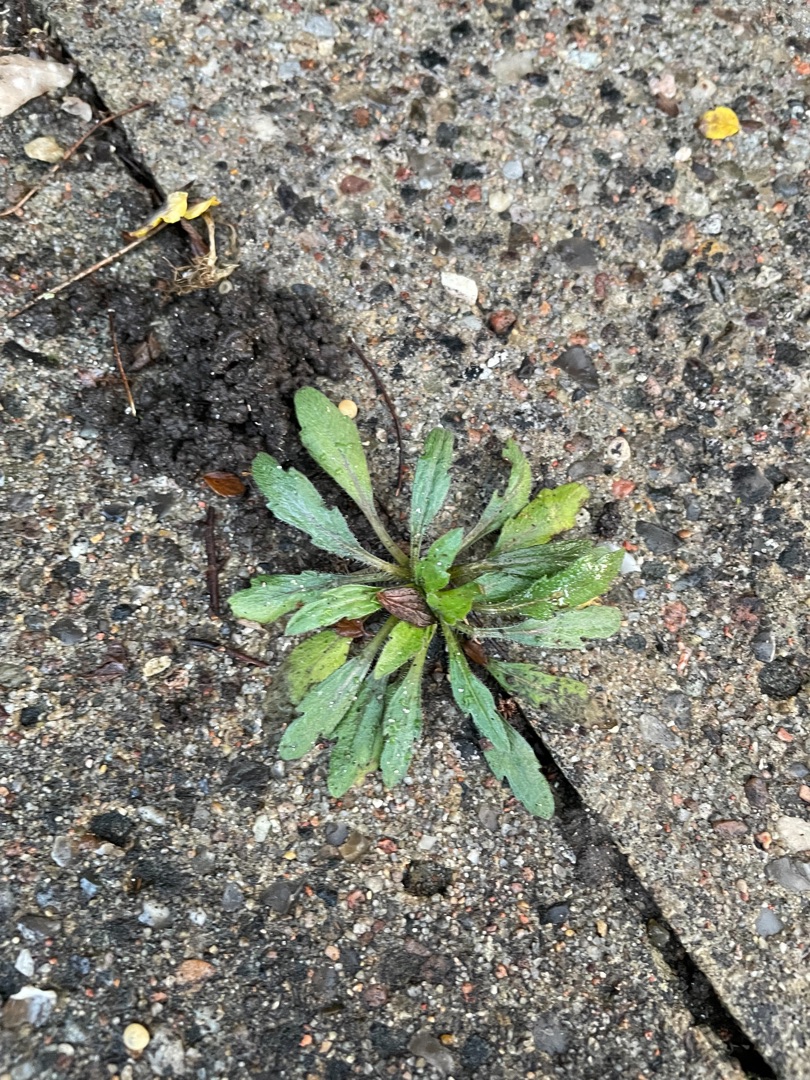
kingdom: Plantae
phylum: Tracheophyta
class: Magnoliopsida
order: Asterales
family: Asteraceae
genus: Erigeron
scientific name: Erigeron canadensis
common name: Kanadisk bakkestjerne
